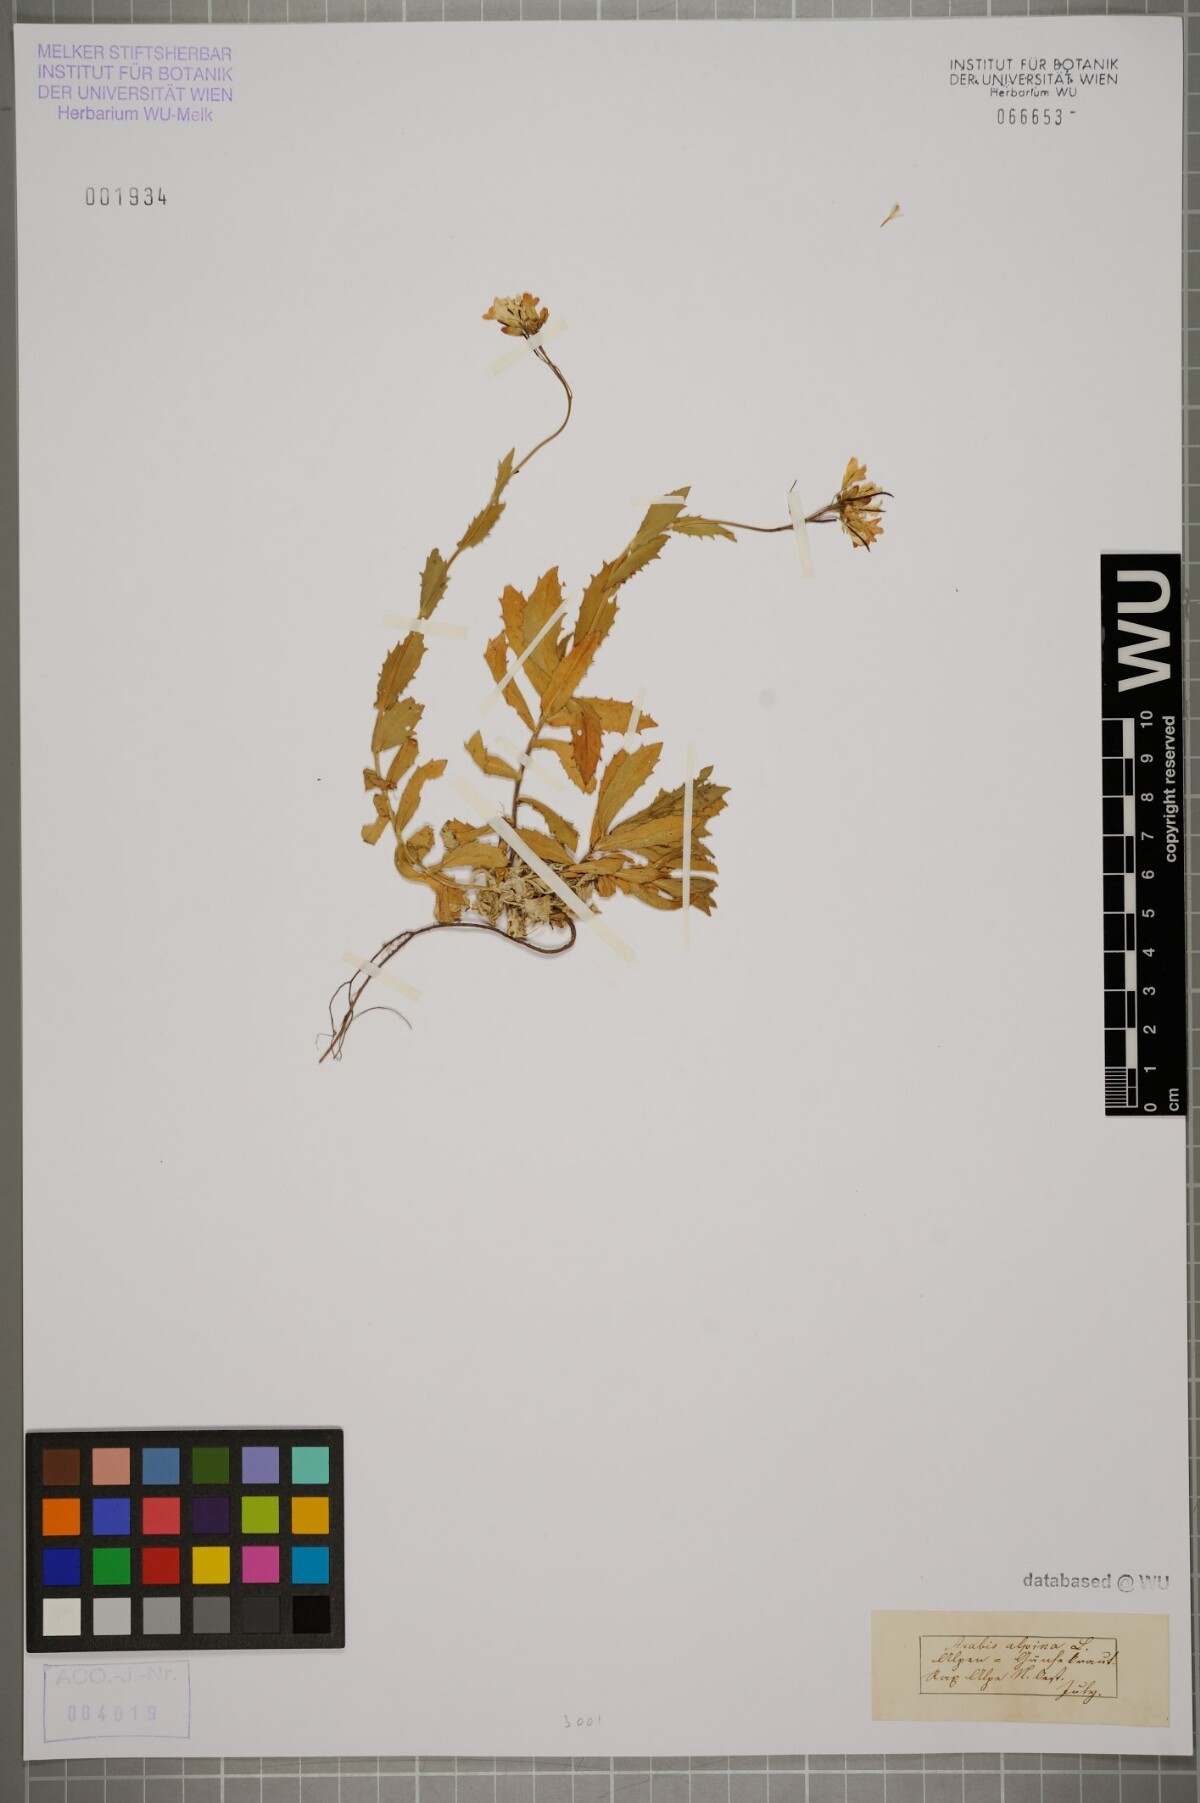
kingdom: Plantae
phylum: Tracheophyta
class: Magnoliopsida
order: Brassicales
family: Brassicaceae
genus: Arabis
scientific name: Arabis alpina
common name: Alpine rock-cress
